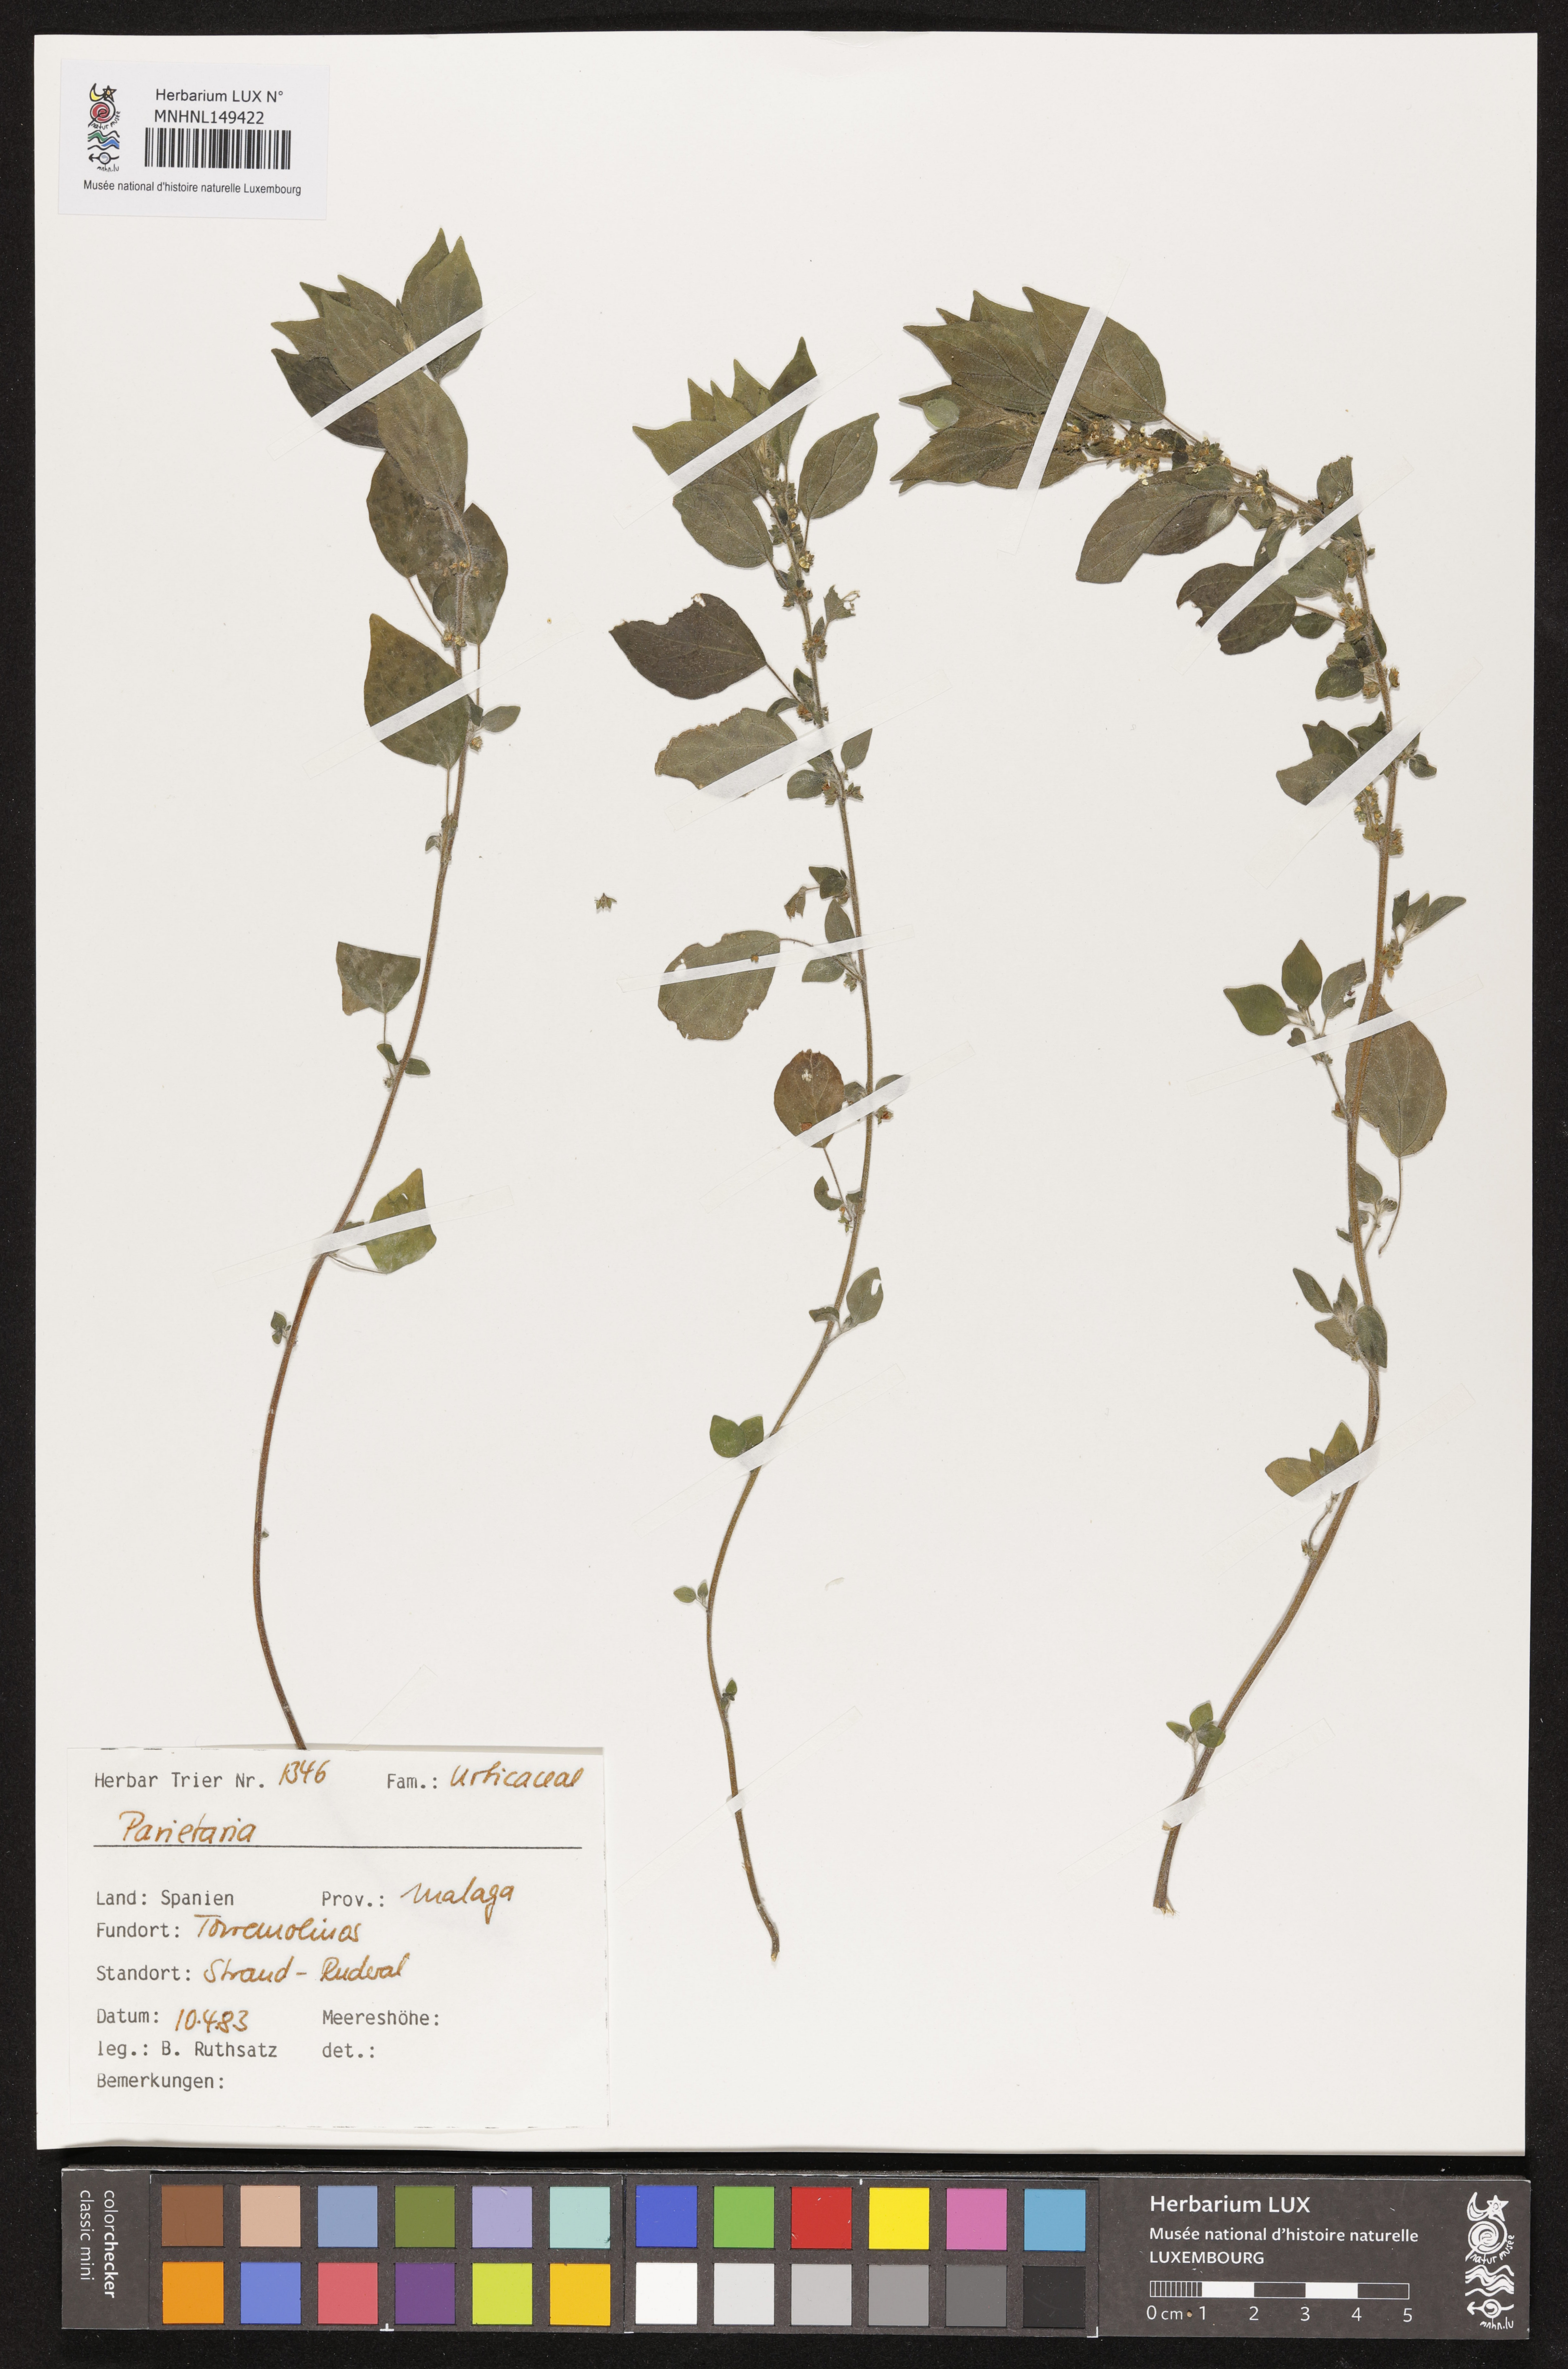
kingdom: Plantae
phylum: Tracheophyta
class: Magnoliopsida
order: Rosales
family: Urticaceae
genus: Parietaria
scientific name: Parietaria
